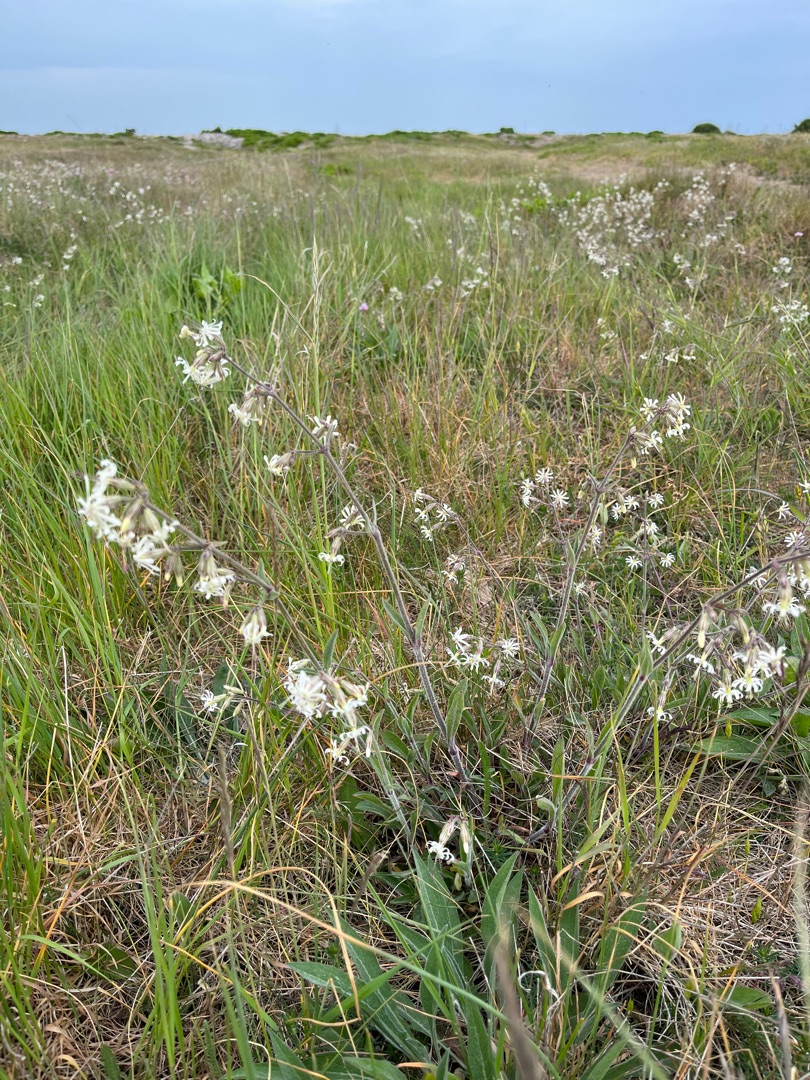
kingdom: Plantae
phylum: Tracheophyta
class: Magnoliopsida
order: Caryophyllales
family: Caryophyllaceae
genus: Silene
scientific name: Silene nutans
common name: Nikkende limurt
